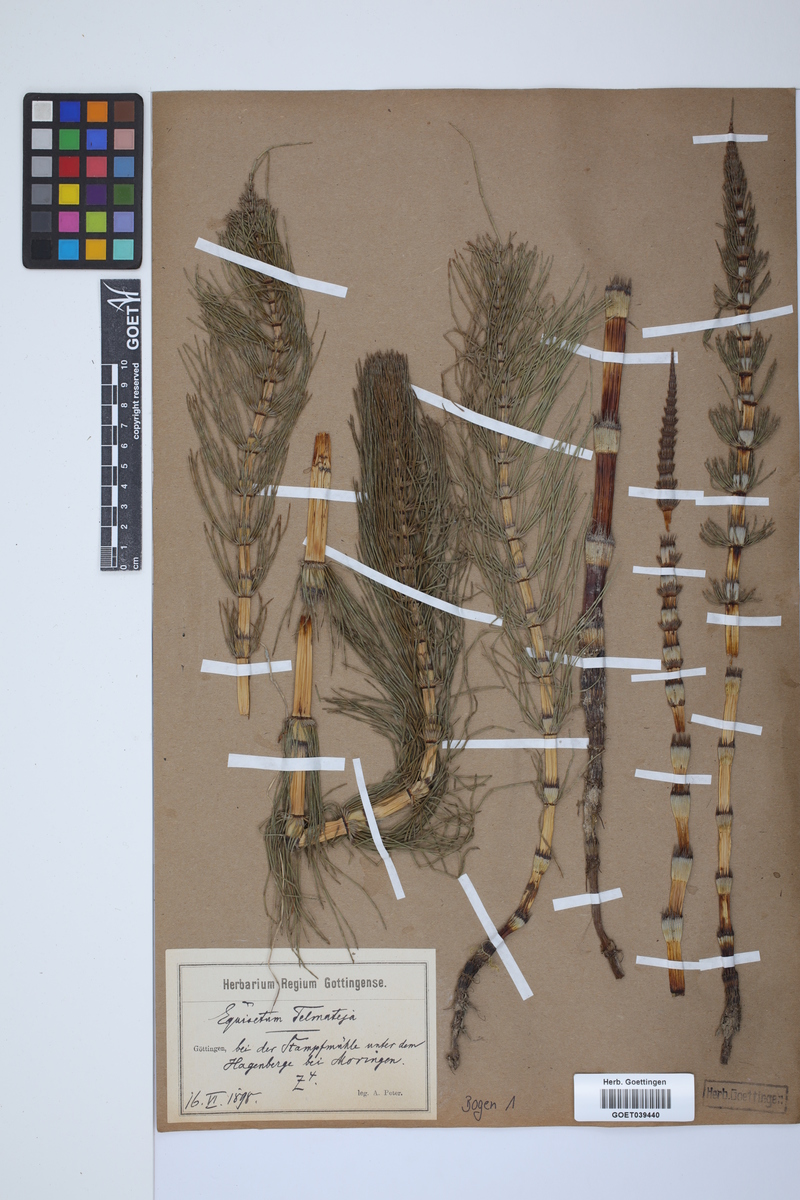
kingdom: Plantae
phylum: Tracheophyta
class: Polypodiopsida
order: Equisetales
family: Equisetaceae
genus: Equisetum
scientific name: Equisetum telmateia
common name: Great horsetail
